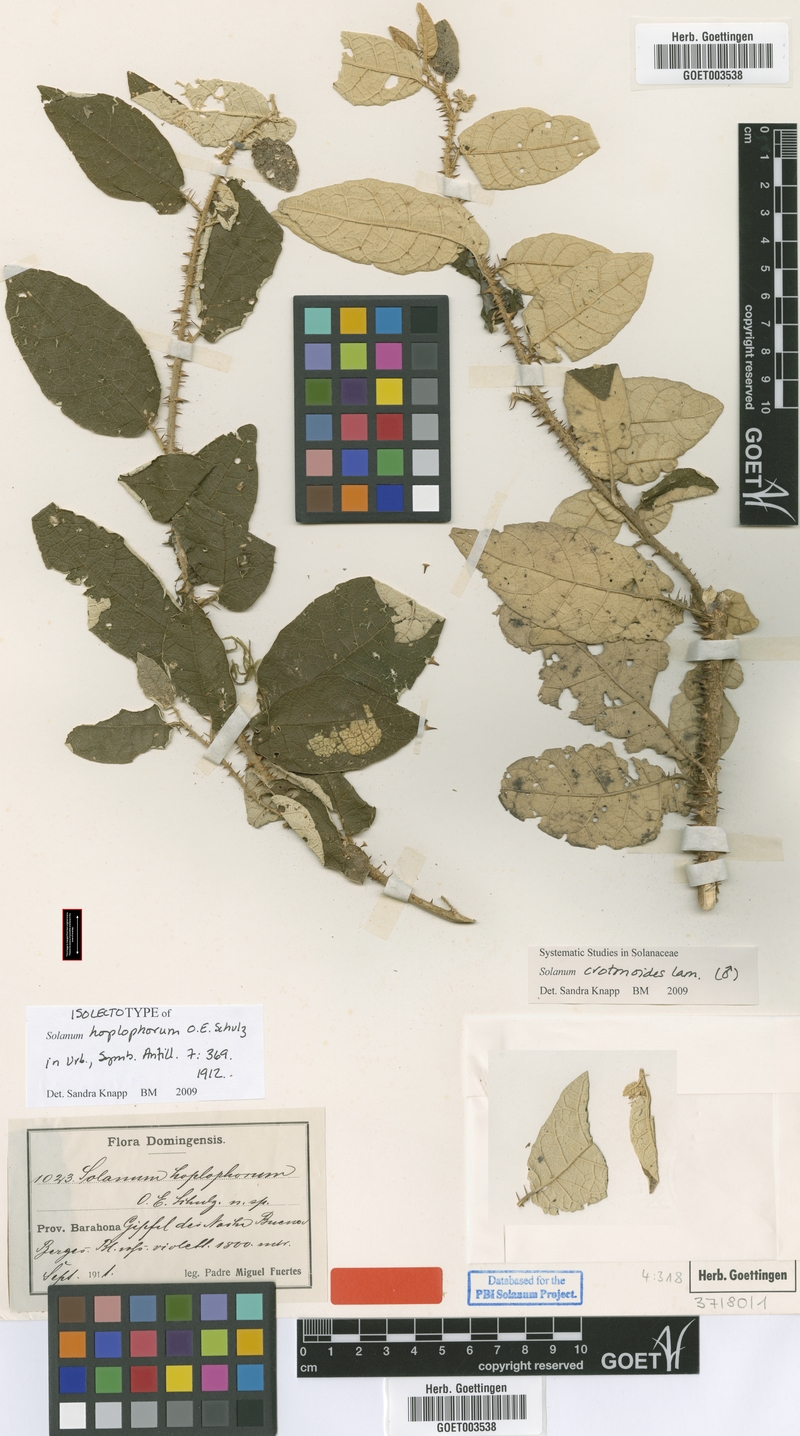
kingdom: Plantae
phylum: Tracheophyta
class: Magnoliopsida
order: Solanales
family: Solanaceae
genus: Solanum
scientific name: Solanum crotonoides
